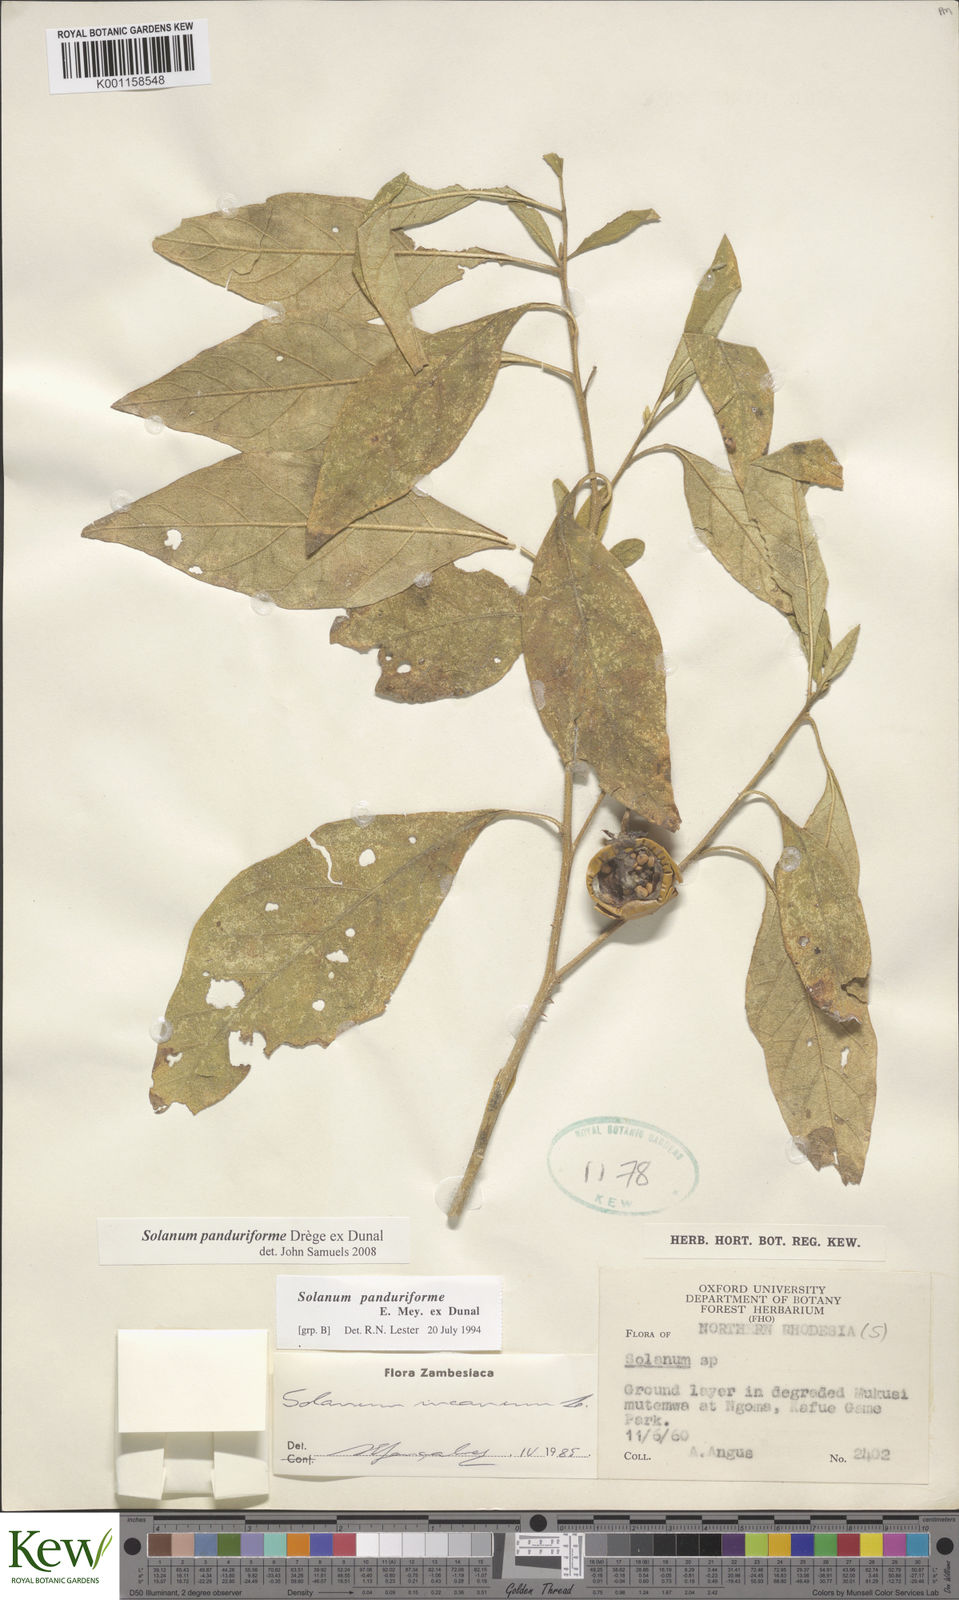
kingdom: Plantae
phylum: Tracheophyta
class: Magnoliopsida
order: Solanales
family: Solanaceae
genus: Solanum
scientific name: Solanum campylacanthum
